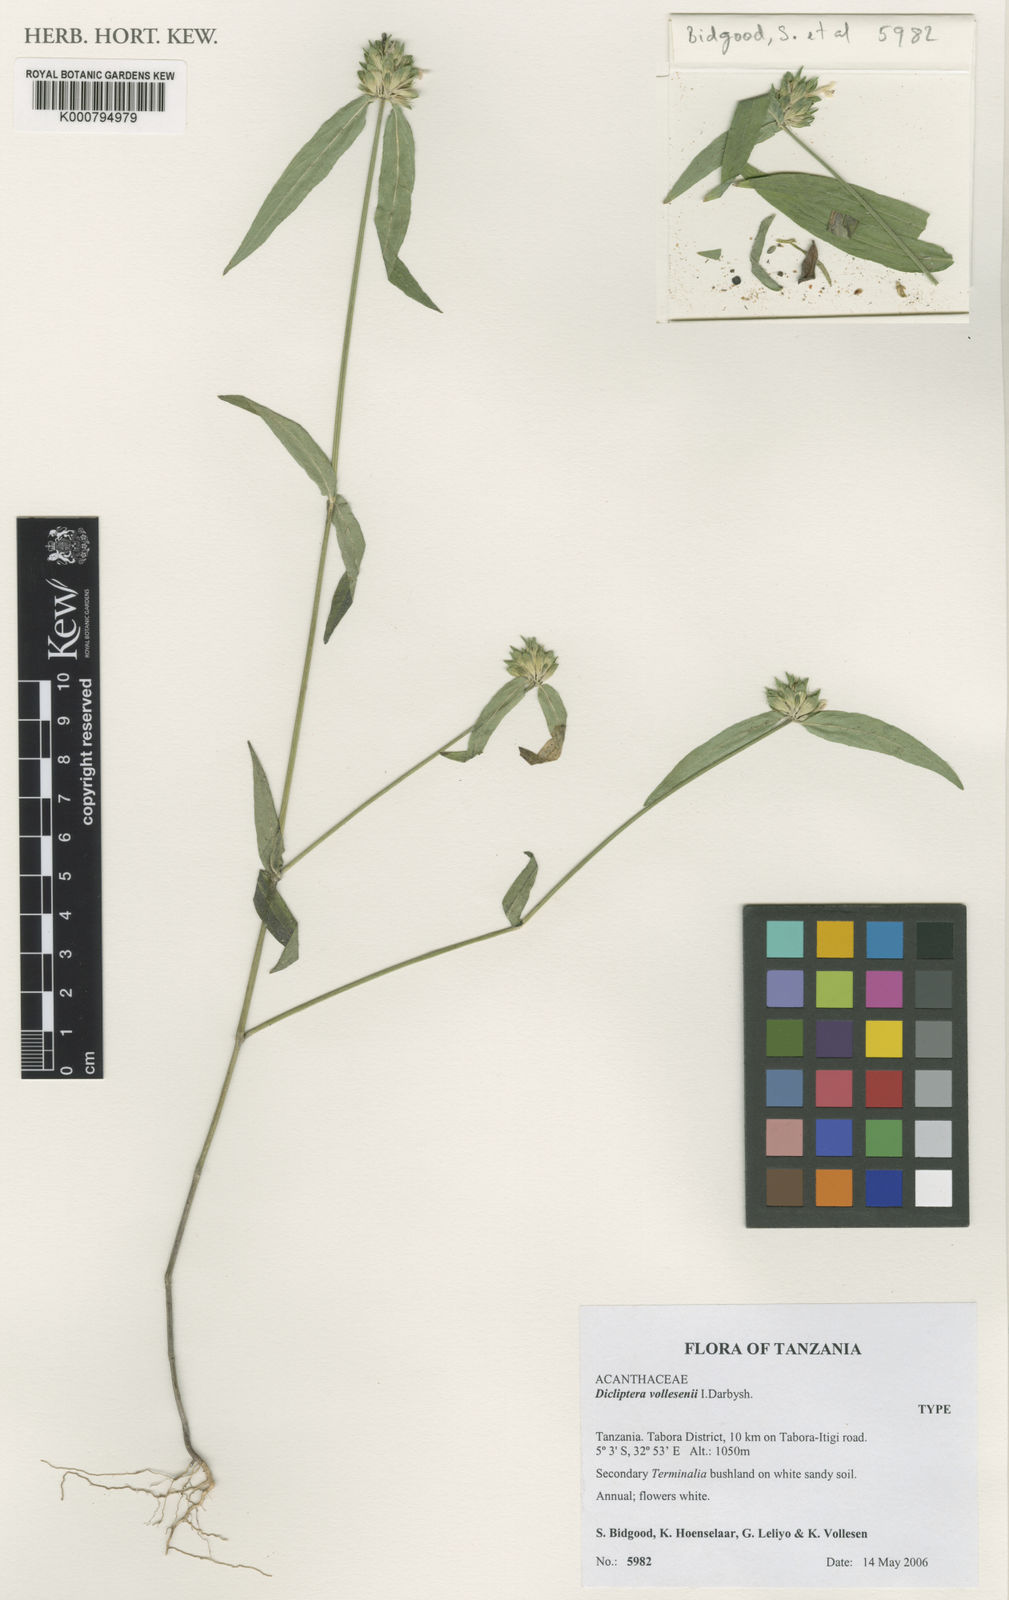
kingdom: Plantae
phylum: Tracheophyta
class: Magnoliopsida
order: Lamiales
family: Acanthaceae
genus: Dicliptera
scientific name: Dicliptera vollesenii
